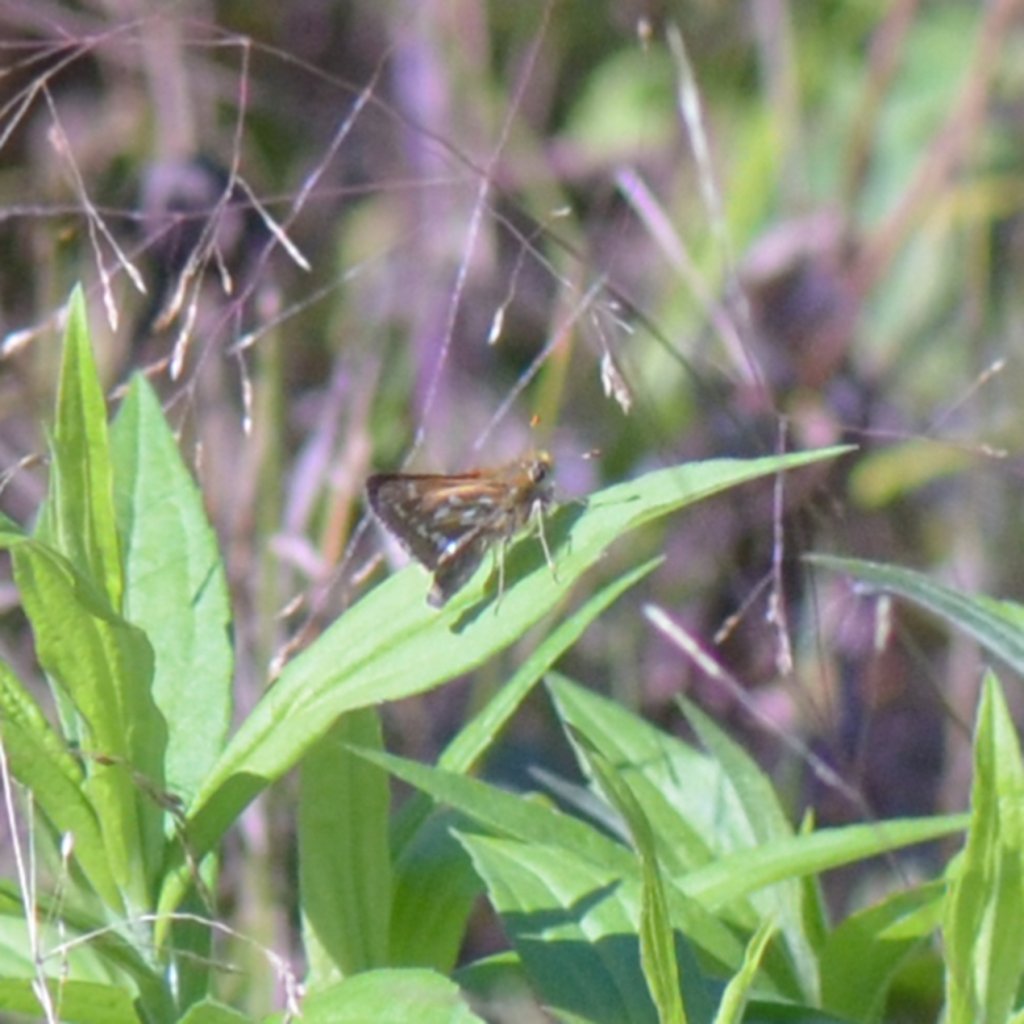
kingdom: Animalia
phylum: Arthropoda
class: Insecta
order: Lepidoptera
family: Hesperiidae
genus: Hesperia
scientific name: Hesperia comma
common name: Common Branded Skipper
